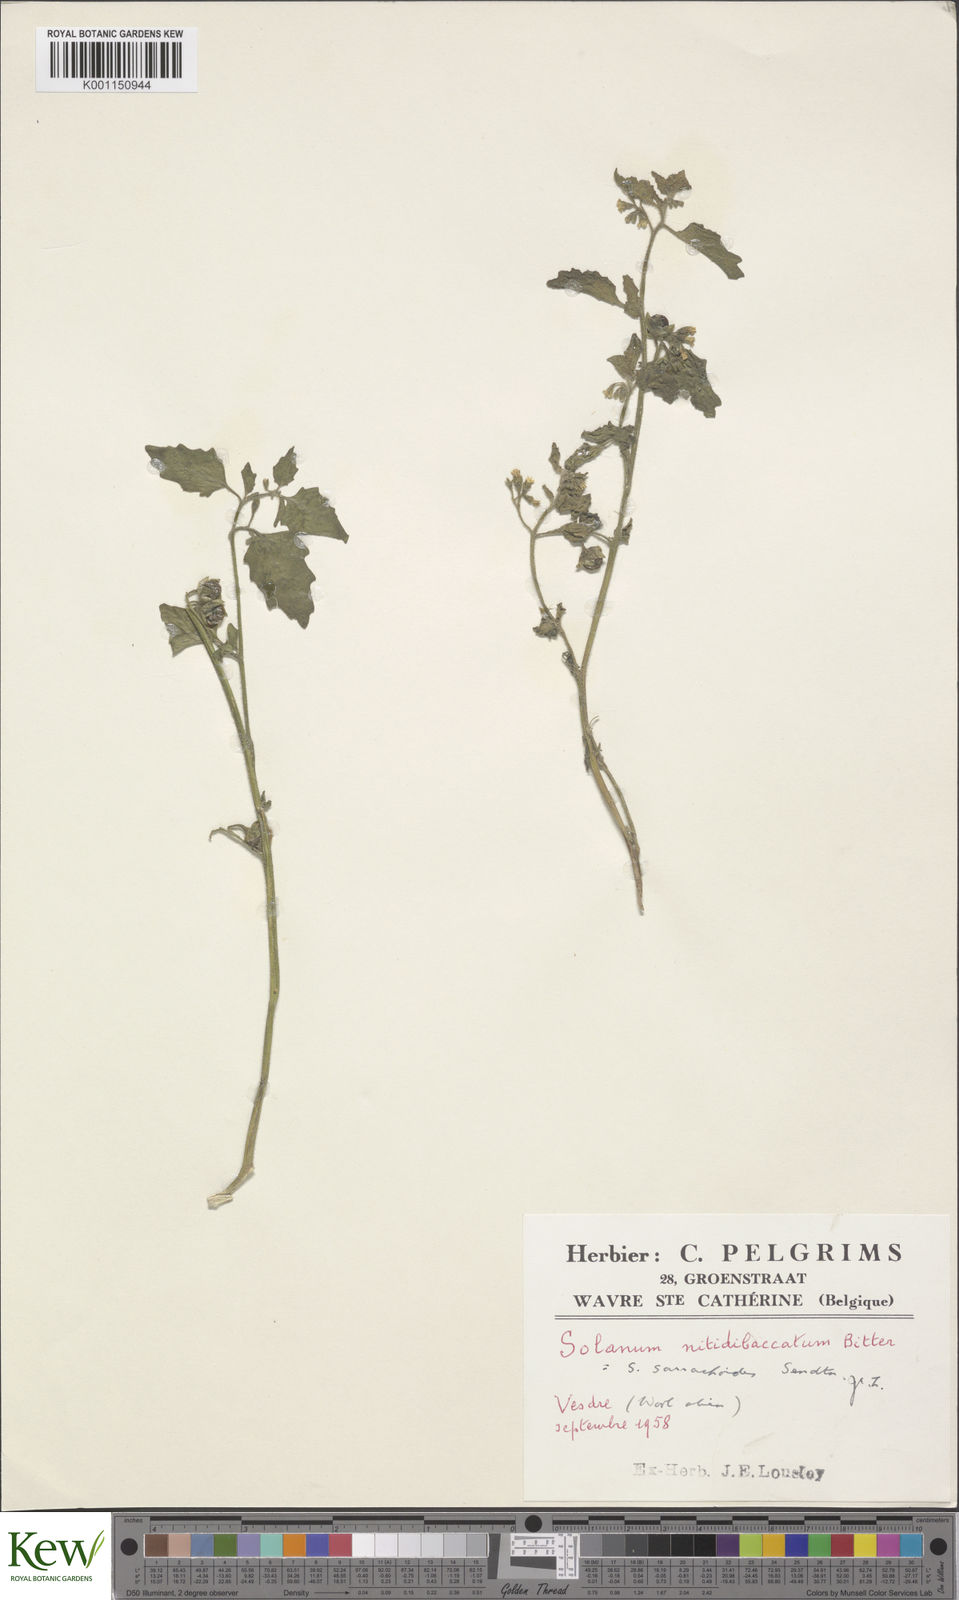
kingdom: Plantae
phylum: Tracheophyta
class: Magnoliopsida
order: Solanales
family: Solanaceae
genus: Solanum
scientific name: Solanum nitidibaccatum
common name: Hairy nightshade
